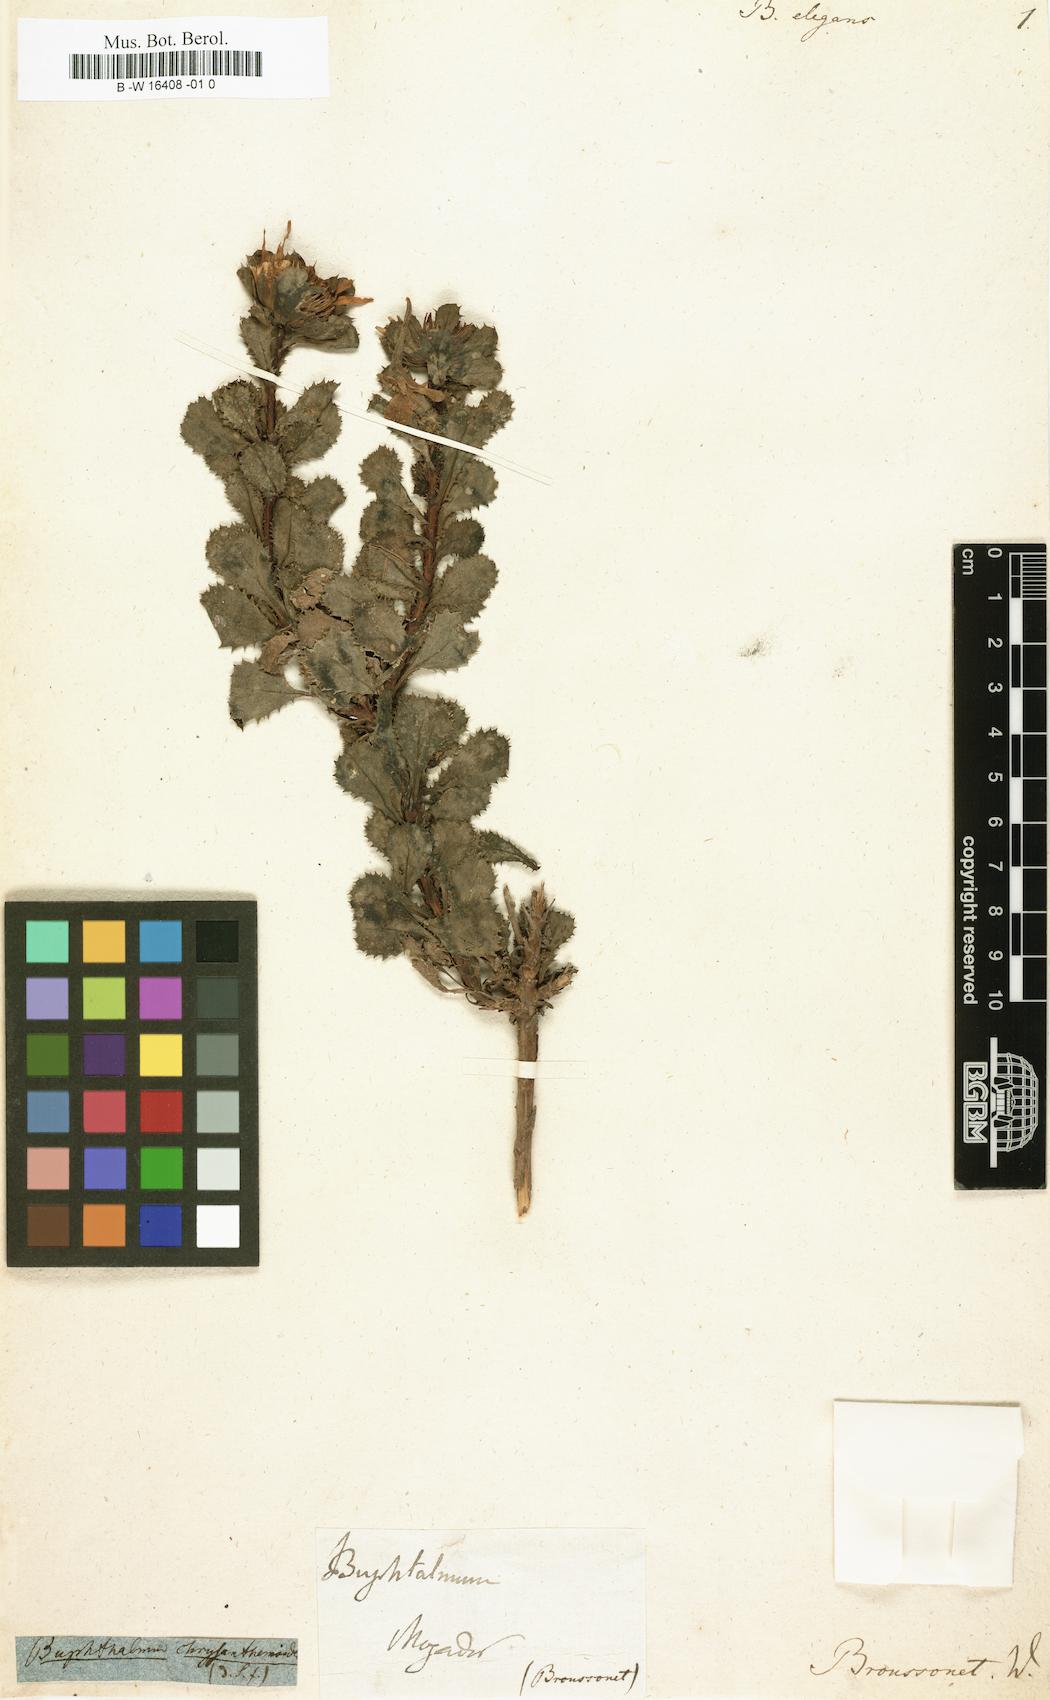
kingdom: Plantae
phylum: Tracheophyta
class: Magnoliopsida
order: Asterales
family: Asteraceae
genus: Asteriscus
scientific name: Asteriscus imbricatus
